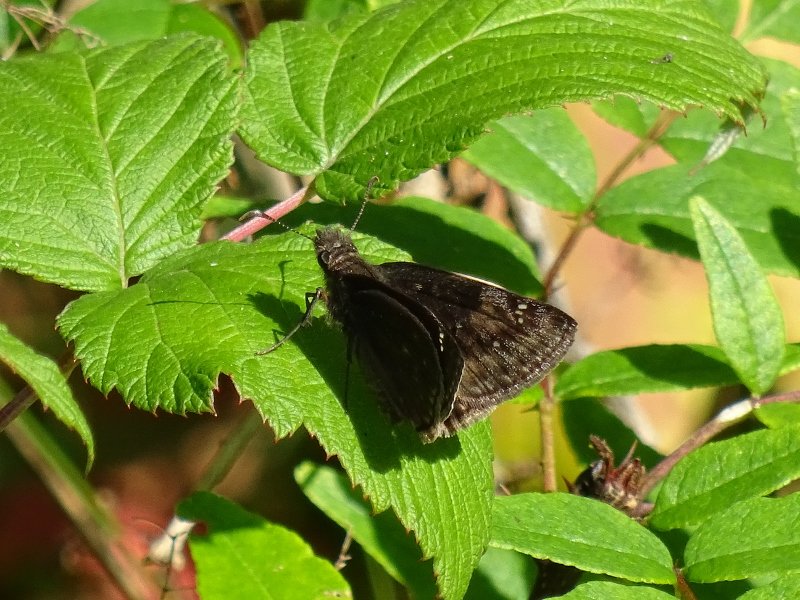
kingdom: Animalia
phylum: Arthropoda
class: Insecta
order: Lepidoptera
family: Hesperiidae
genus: Gesta
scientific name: Gesta
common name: Wild Indigo Duskywing
